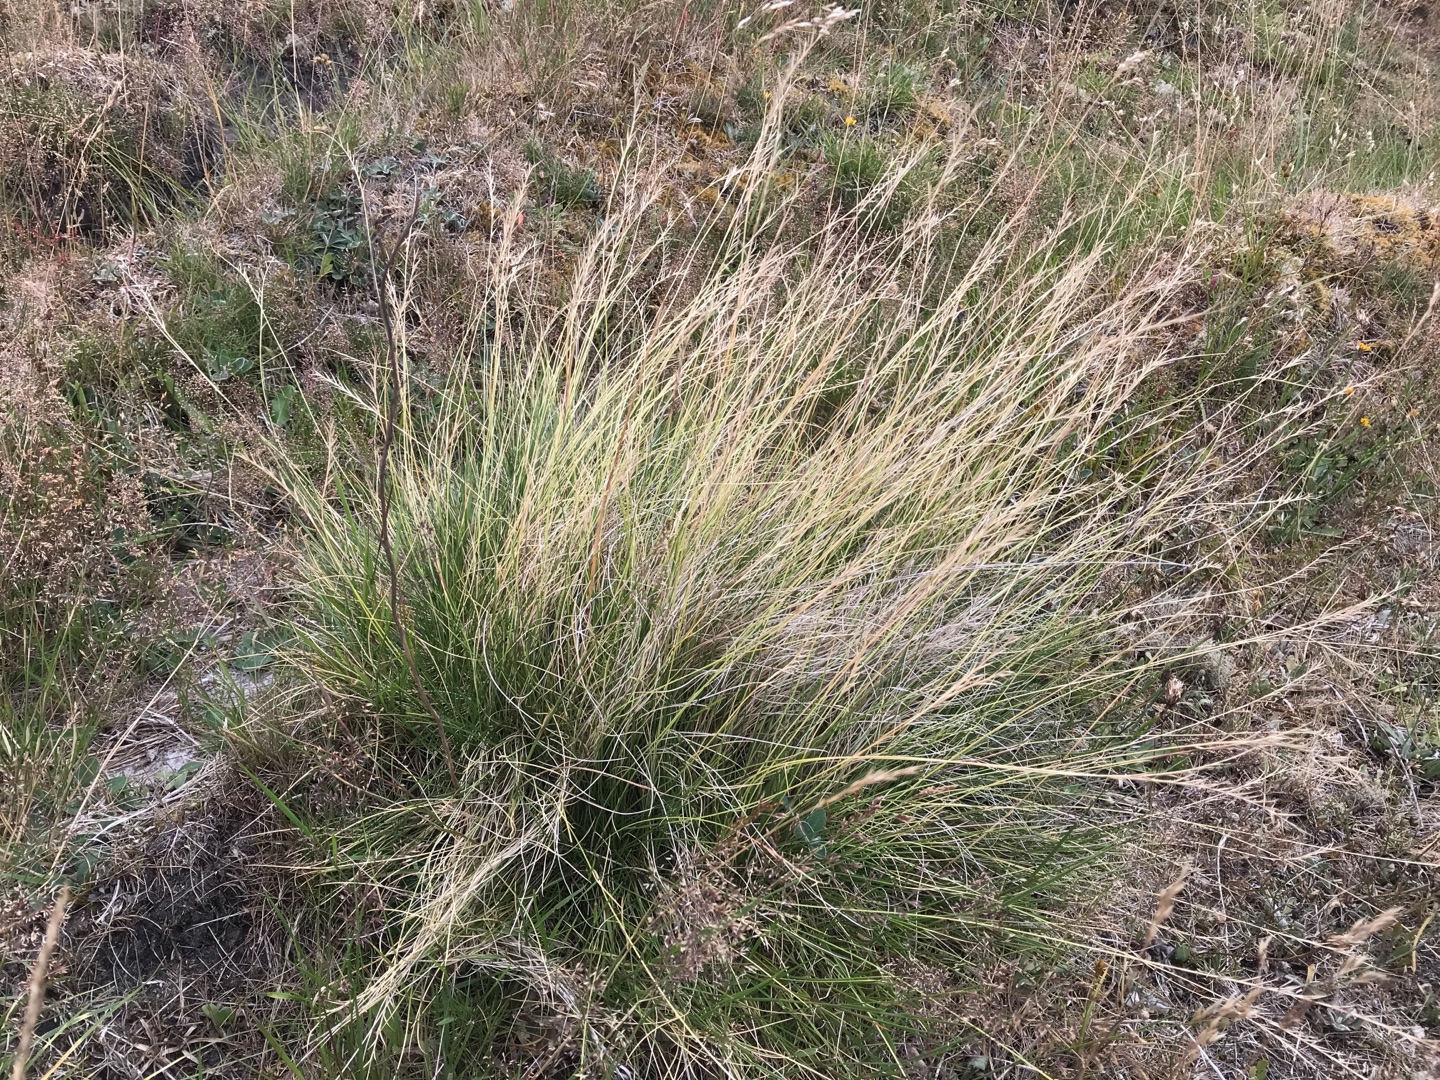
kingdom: Plantae
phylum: Tracheophyta
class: Liliopsida
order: Poales
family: Poaceae
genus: Nardus
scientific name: Nardus stricta
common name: Katteskæg
